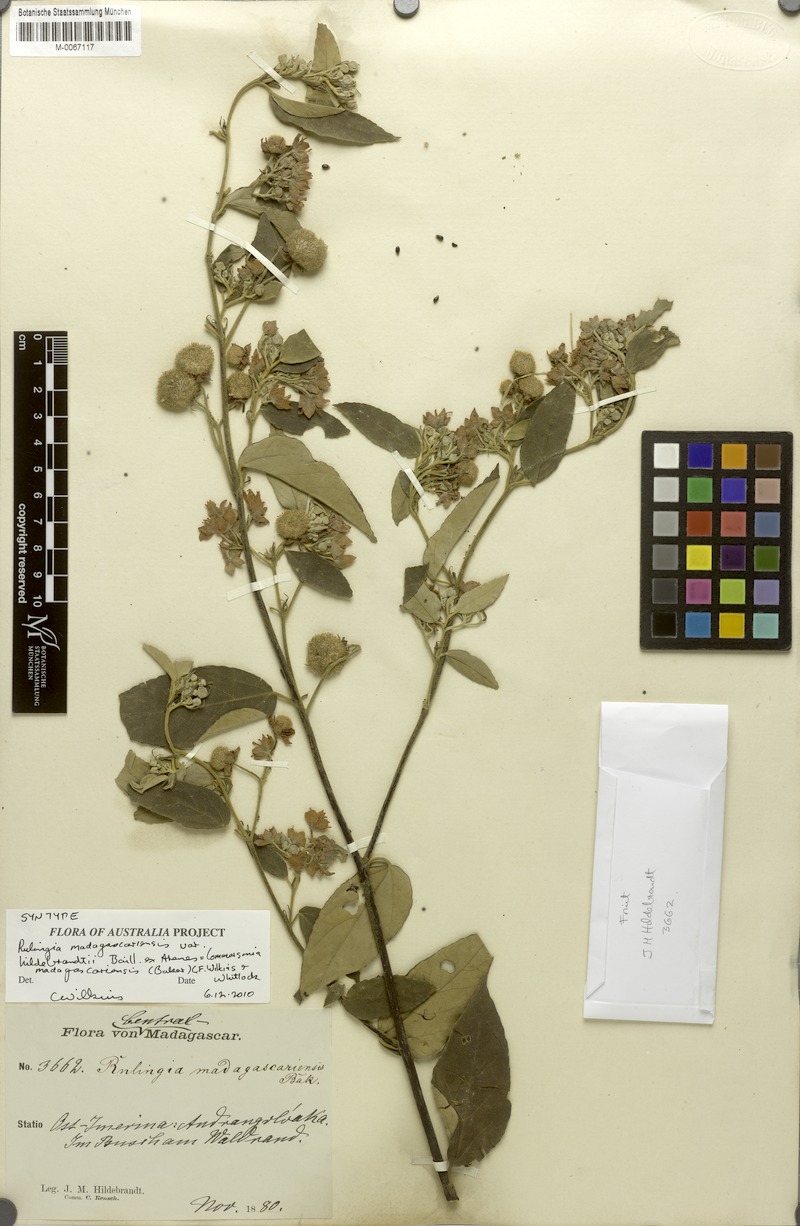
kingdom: Plantae
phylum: Tracheophyta
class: Magnoliopsida
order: Malvales
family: Malvaceae
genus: Commersonia
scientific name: Commersonia madagascariensis
